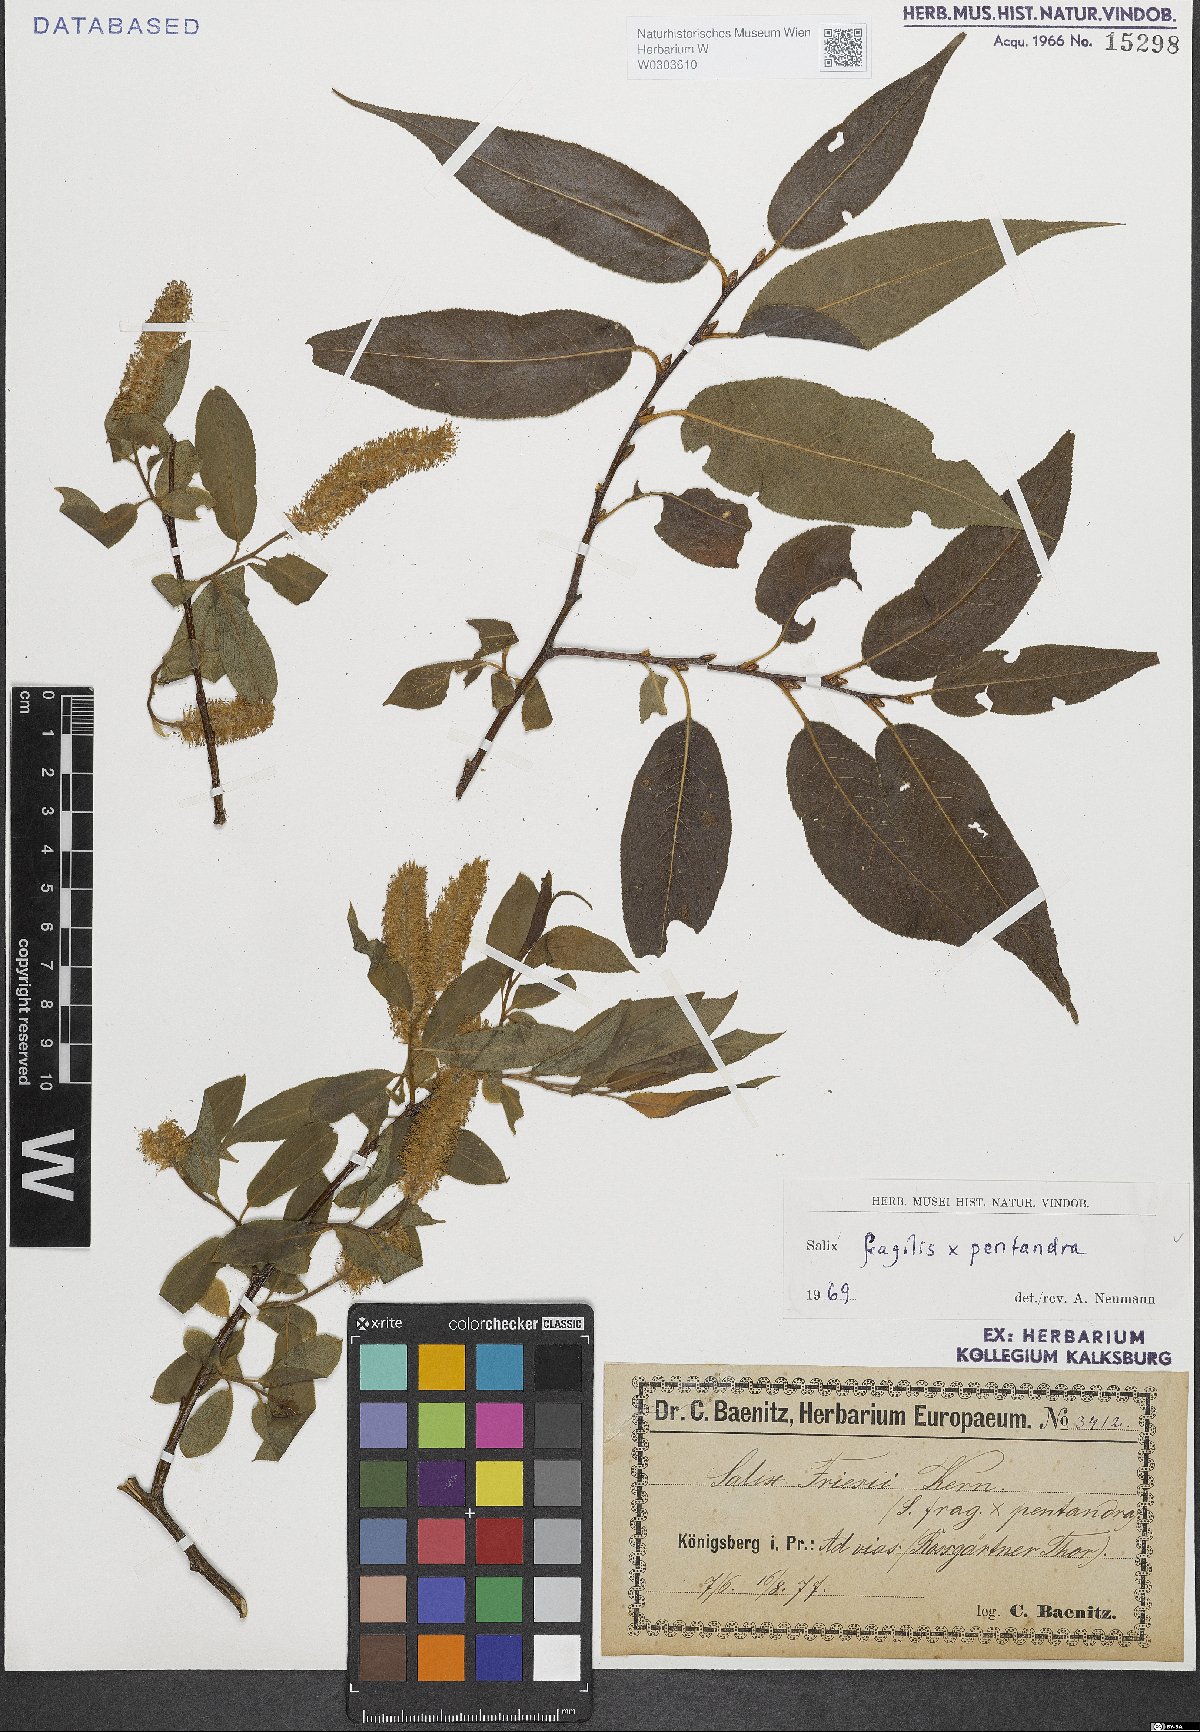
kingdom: Plantae
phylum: Tracheophyta
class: Magnoliopsida
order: Malpighiales
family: Salicaceae
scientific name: Salicaceae
